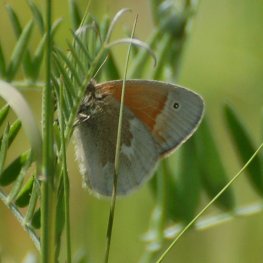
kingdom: Animalia
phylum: Arthropoda
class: Insecta
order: Lepidoptera
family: Nymphalidae
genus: Coenonympha
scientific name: Coenonympha tullia
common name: Large Heath
